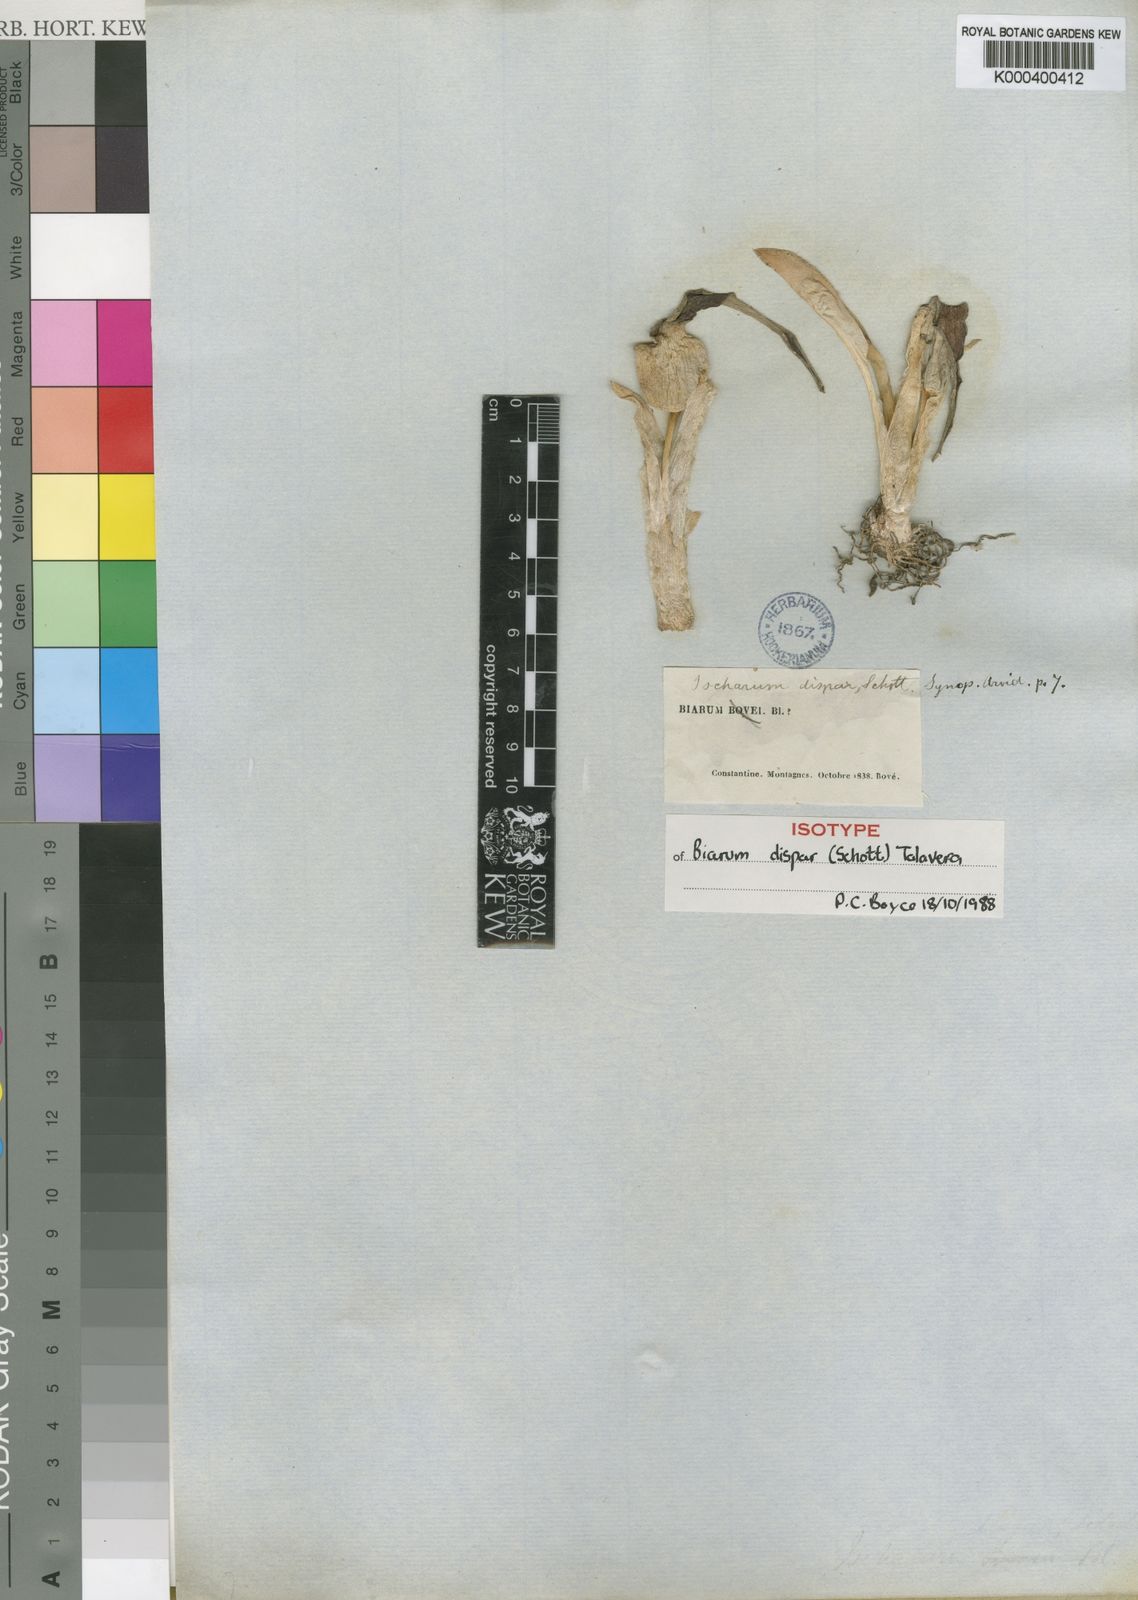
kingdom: Plantae
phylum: Tracheophyta
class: Liliopsida
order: Alismatales
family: Araceae
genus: Biarum
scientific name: Biarum dispar
